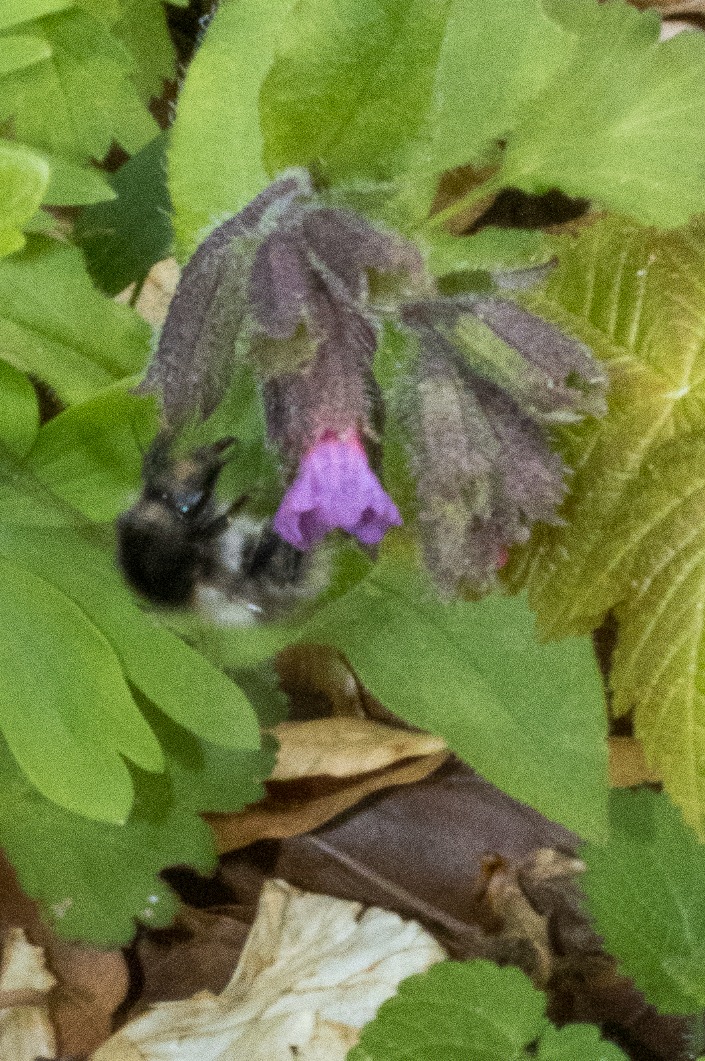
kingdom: Plantae
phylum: Tracheophyta
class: Magnoliopsida
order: Boraginales
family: Boraginaceae
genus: Pulmonaria
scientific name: Pulmonaria obscura
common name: Almindelig lungeurt
